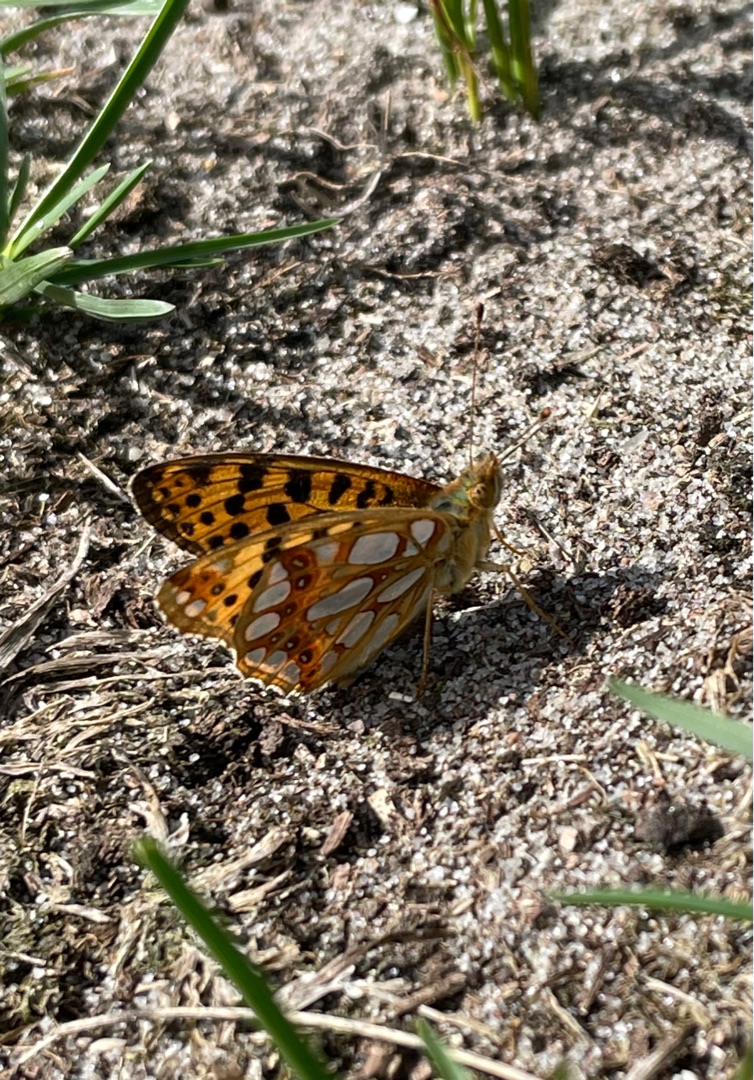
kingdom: Animalia
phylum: Arthropoda
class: Insecta
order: Lepidoptera
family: Nymphalidae
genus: Issoria
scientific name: Issoria lathonia
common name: Storplettet perlemorsommerfugl
